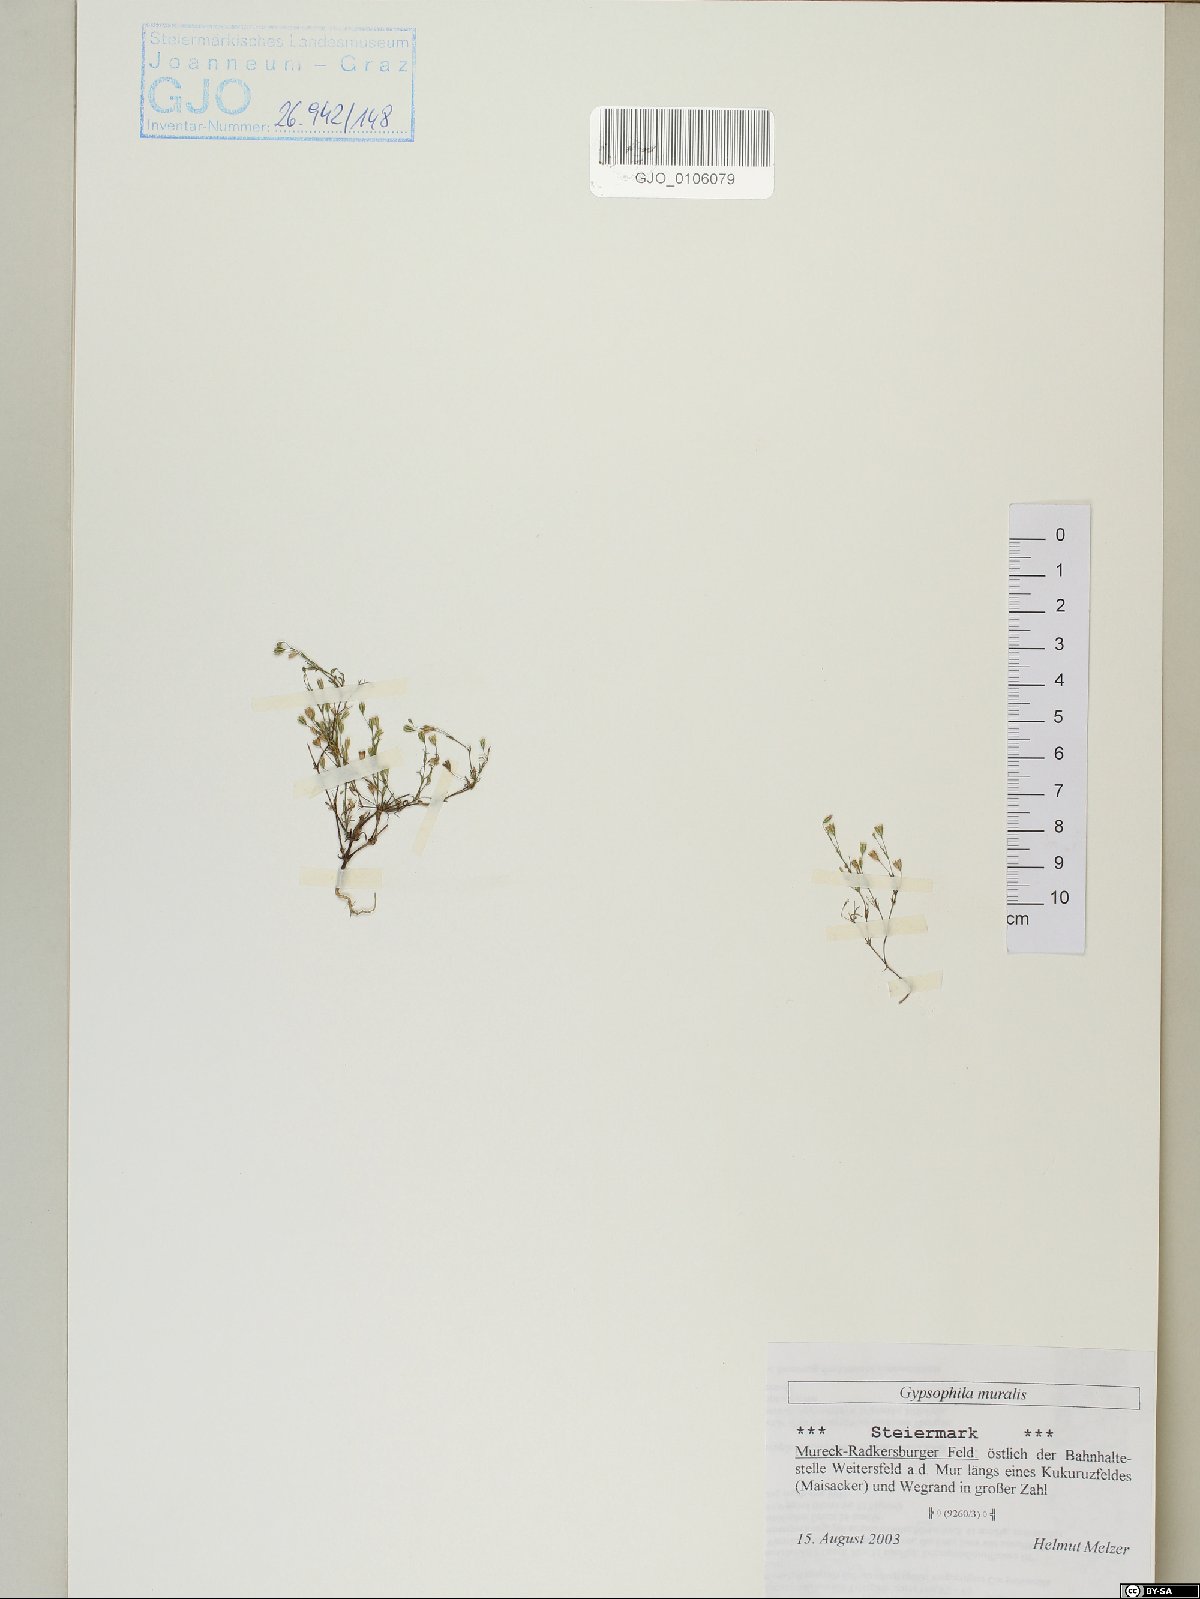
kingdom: Plantae
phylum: Tracheophyta
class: Magnoliopsida
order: Caryophyllales
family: Caryophyllaceae
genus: Psammophiliella
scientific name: Psammophiliella muralis
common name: Cushion baby's-breath
